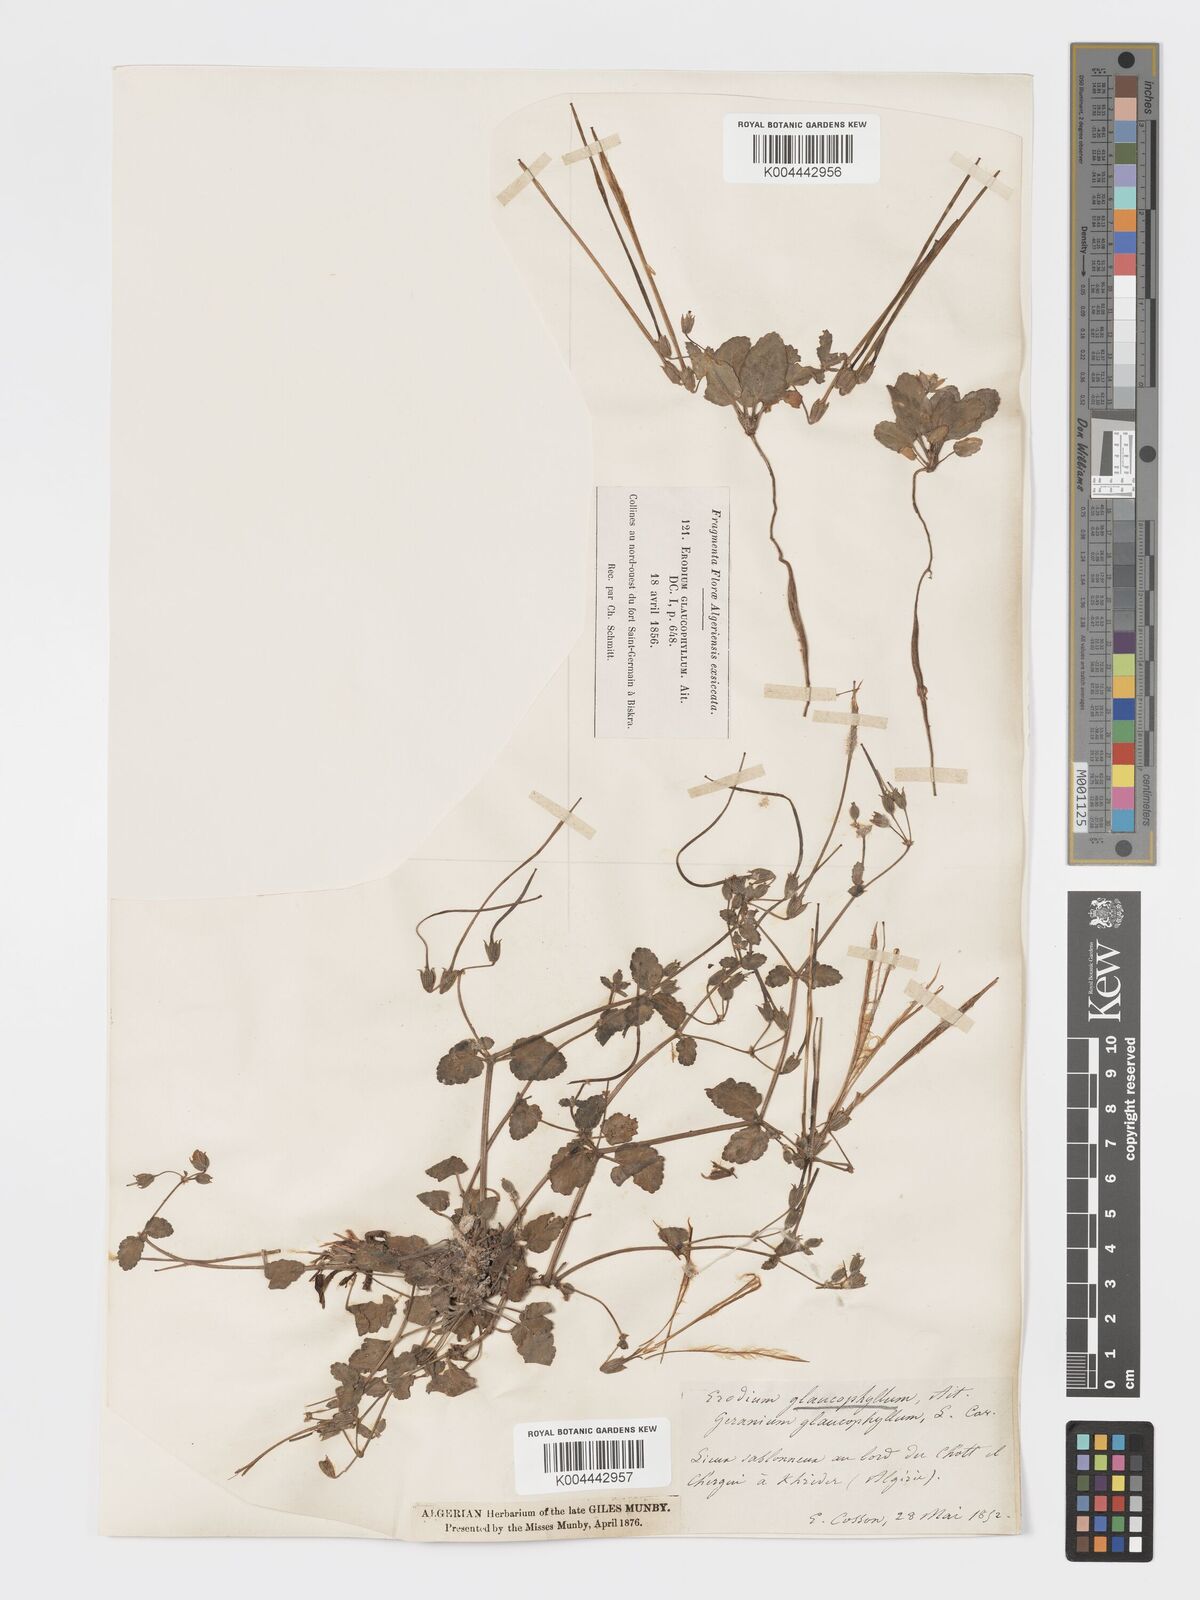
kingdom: Plantae
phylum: Tracheophyta
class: Magnoliopsida
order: Geraniales
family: Geraniaceae
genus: Erodium
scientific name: Erodium glaucophyllum
